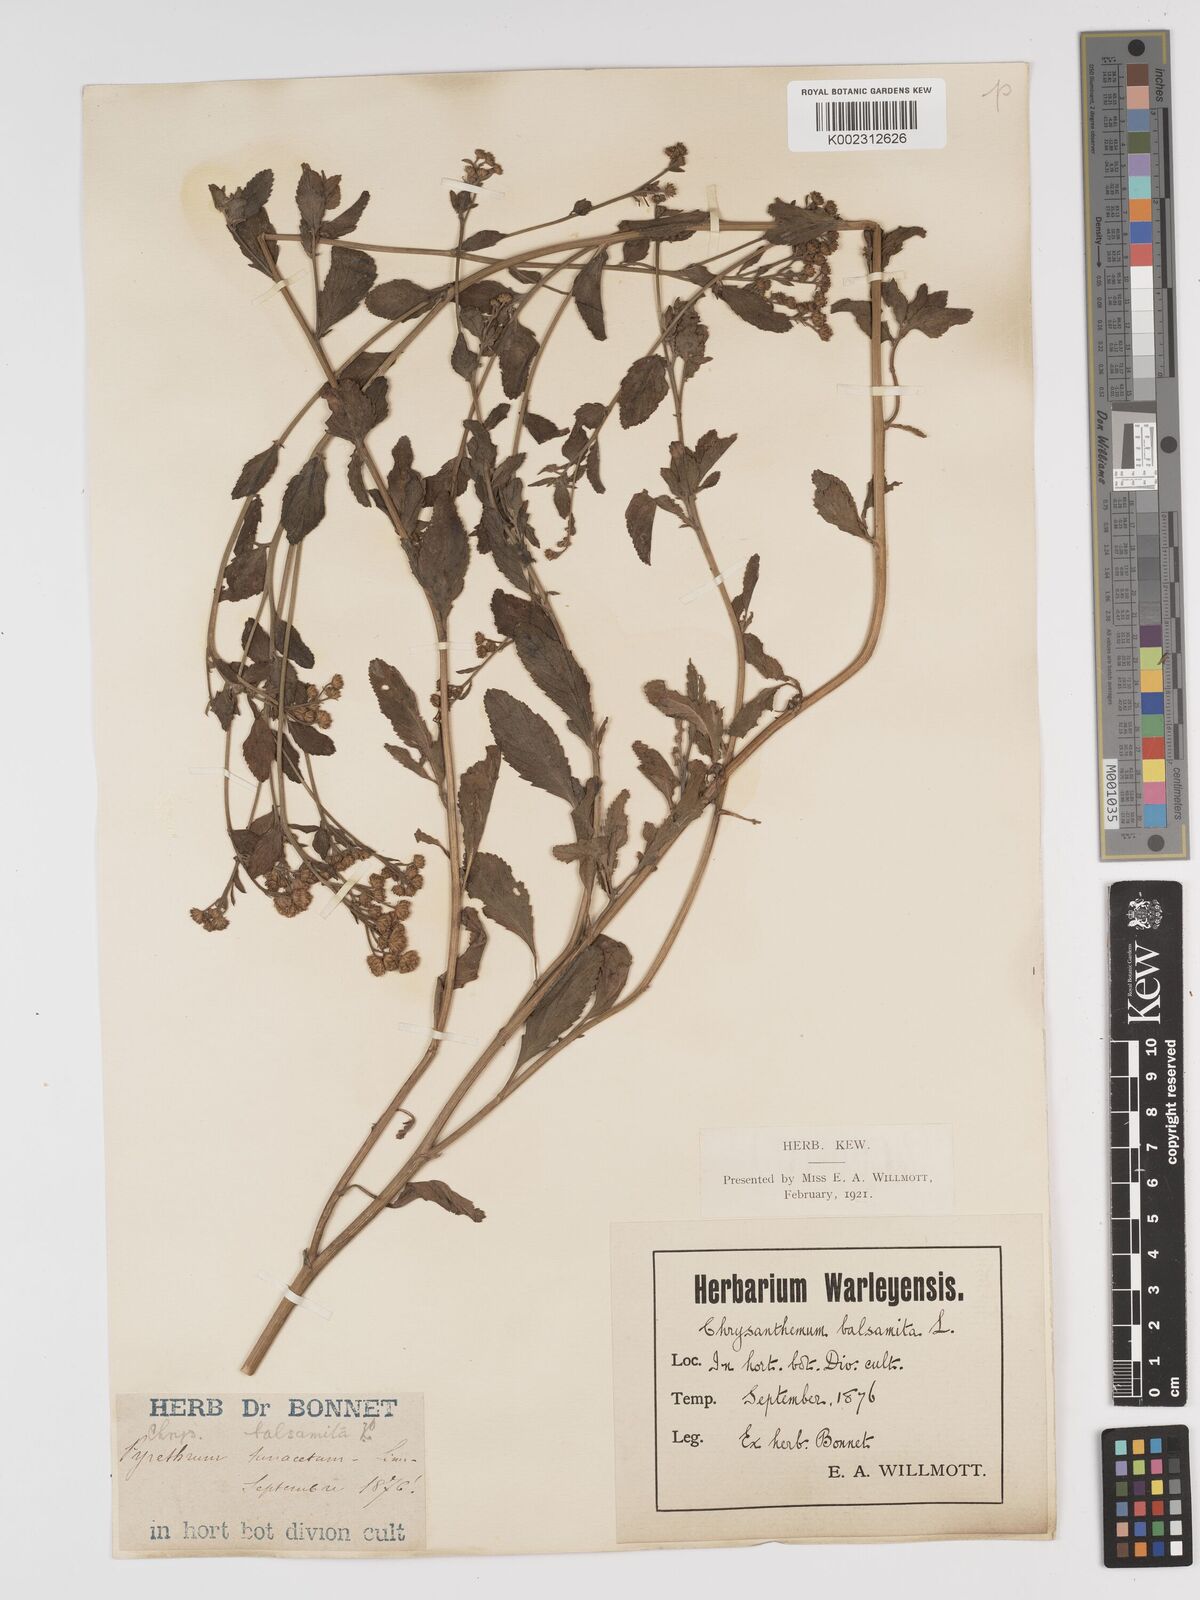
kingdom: Plantae
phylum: Tracheophyta
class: Magnoliopsida
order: Asterales
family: Asteraceae
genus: Tanacetum
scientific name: Tanacetum balsamita
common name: Costmary
